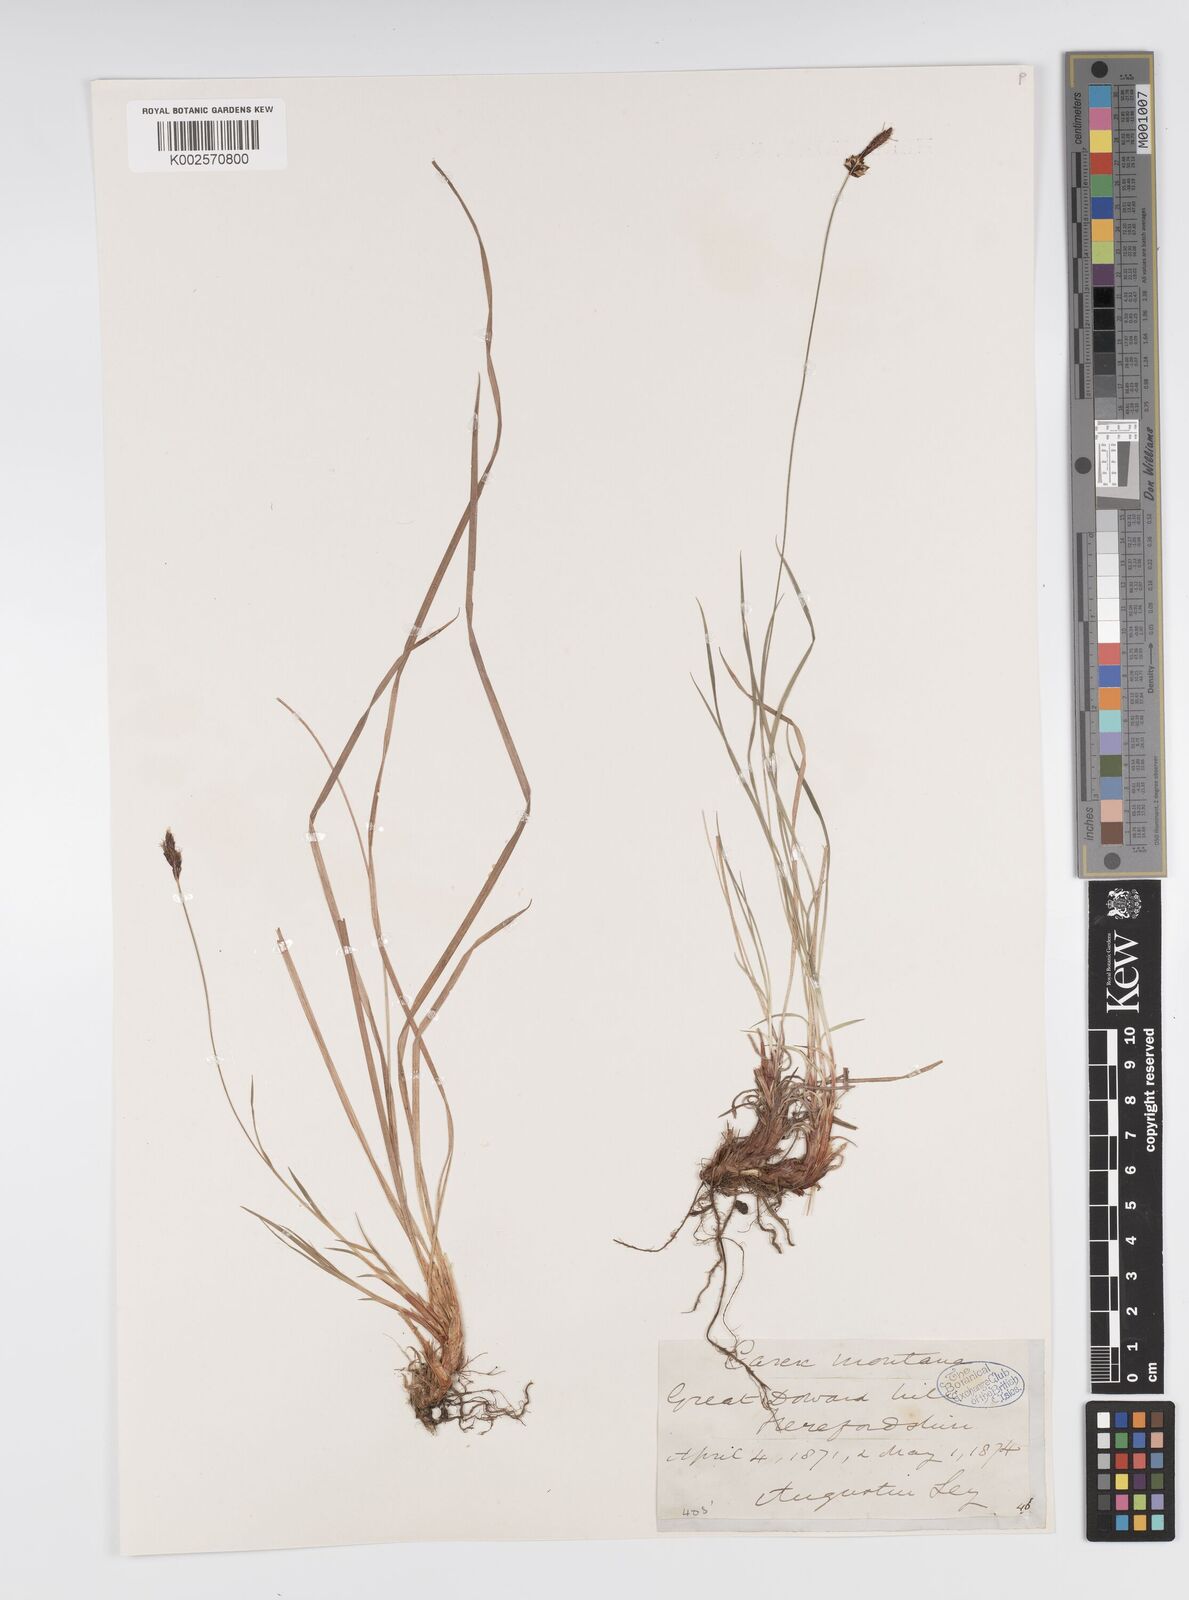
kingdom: Plantae
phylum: Tracheophyta
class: Liliopsida
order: Poales
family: Cyperaceae
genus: Carex
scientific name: Carex montana
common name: Soft-leaved sedge
